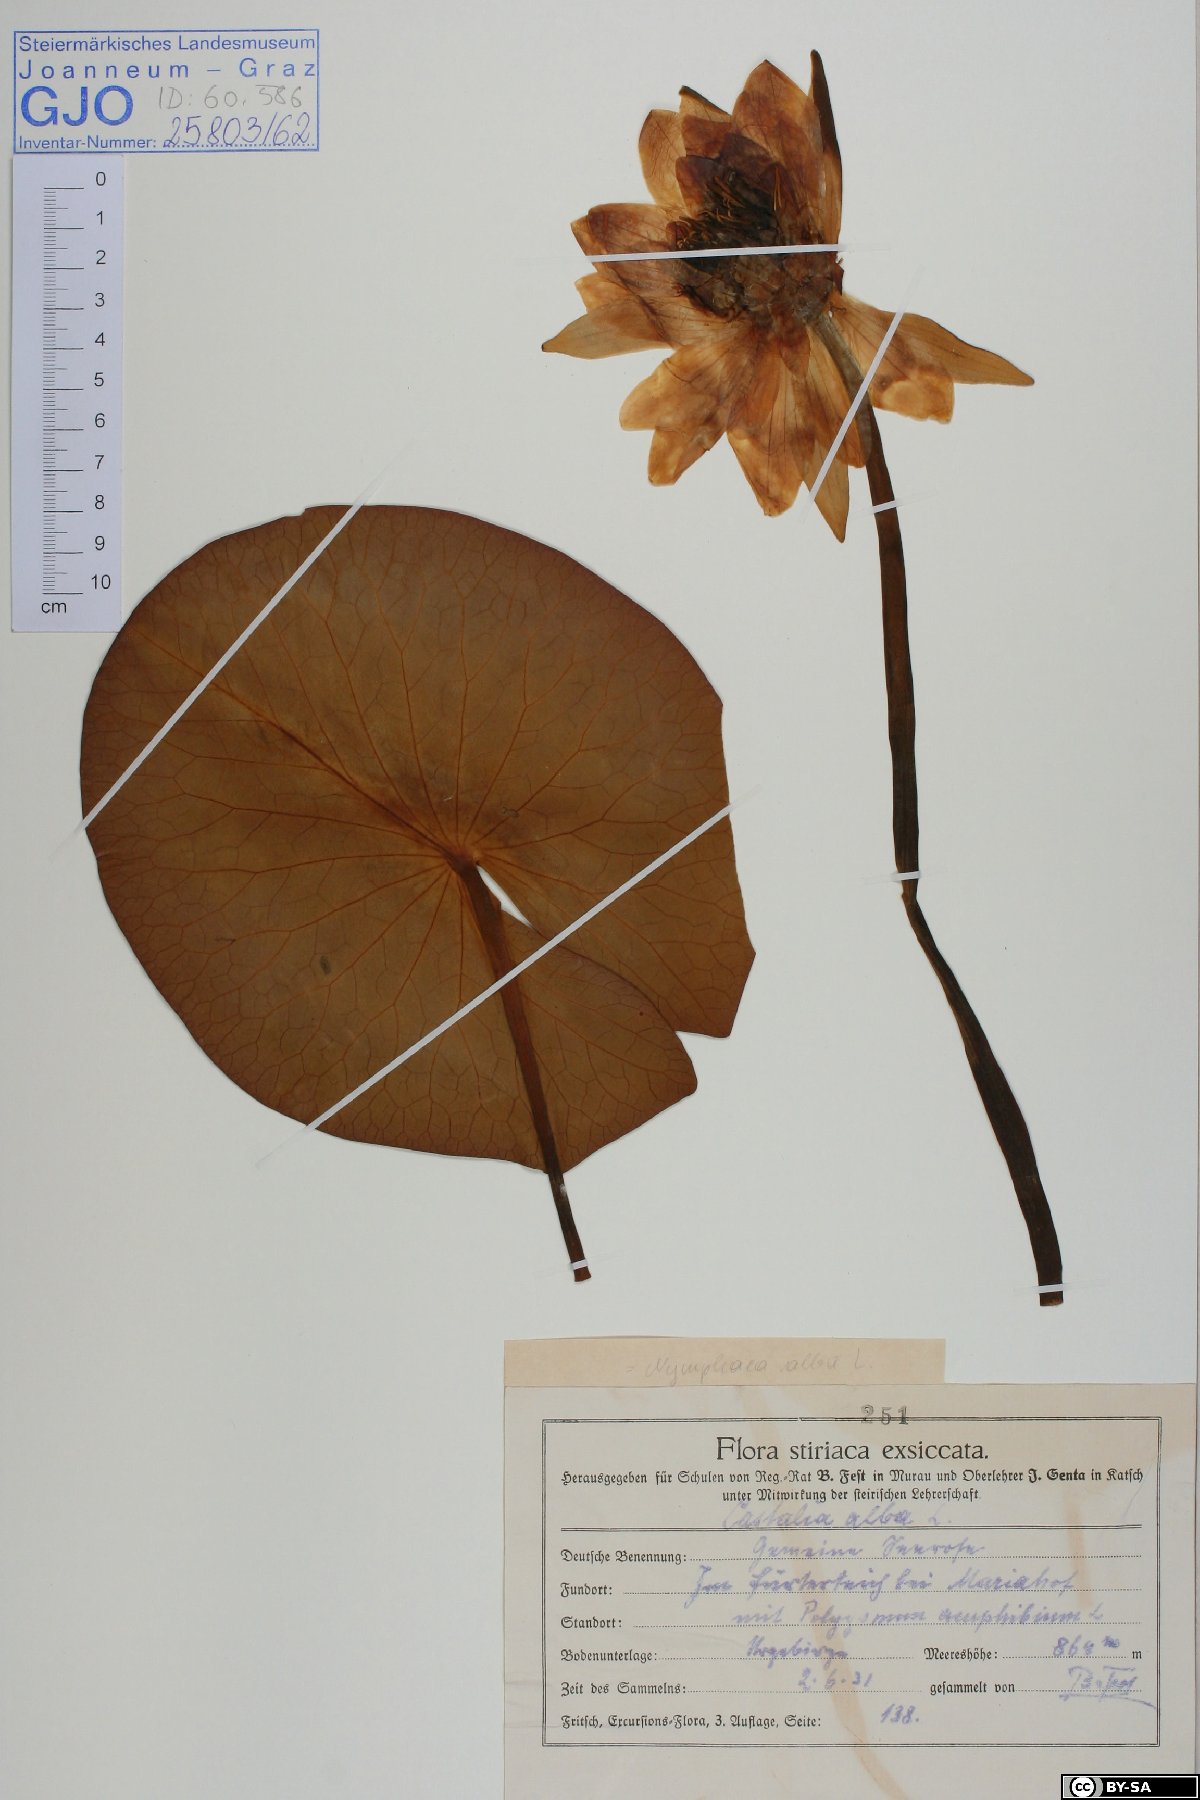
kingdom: Plantae
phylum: Tracheophyta
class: Magnoliopsida
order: Nymphaeales
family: Nymphaeaceae
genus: Nymphaea
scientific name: Nymphaea alba
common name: White water-lily
